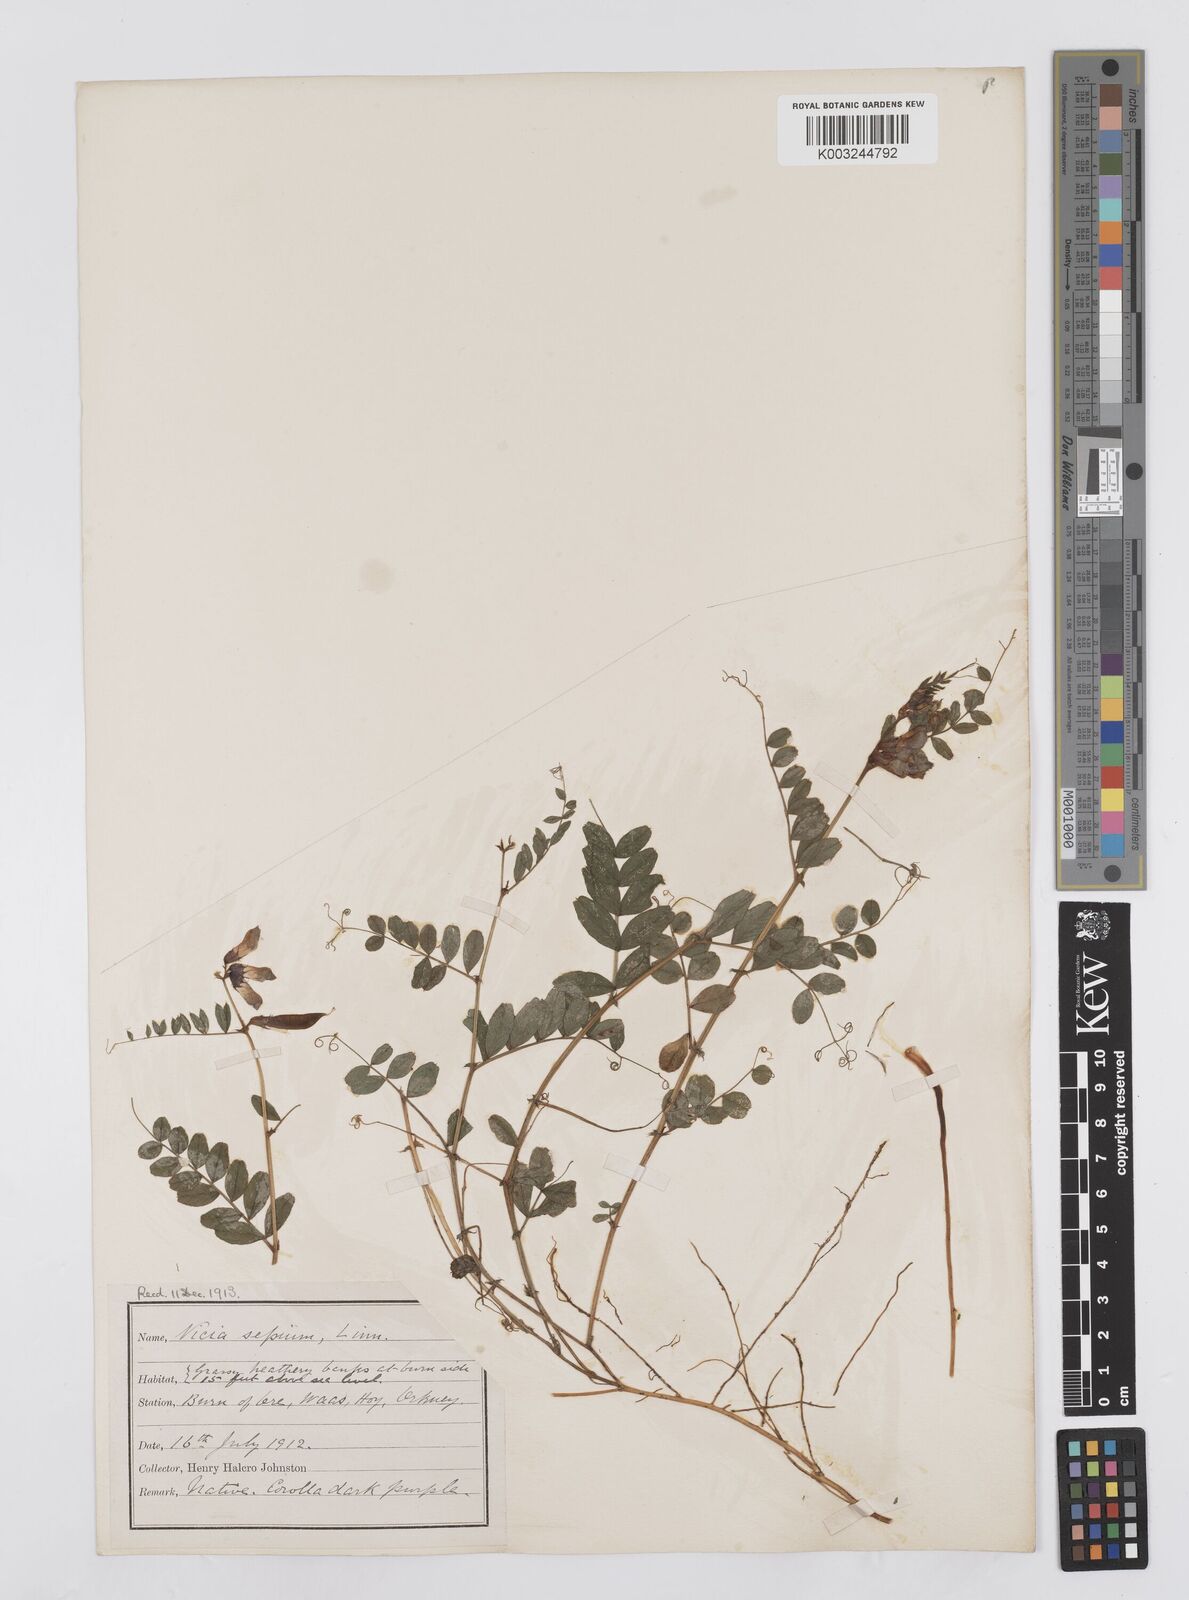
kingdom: Plantae
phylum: Tracheophyta
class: Magnoliopsida
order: Fabales
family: Fabaceae
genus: Vicia
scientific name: Vicia sepium
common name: Bush vetch
